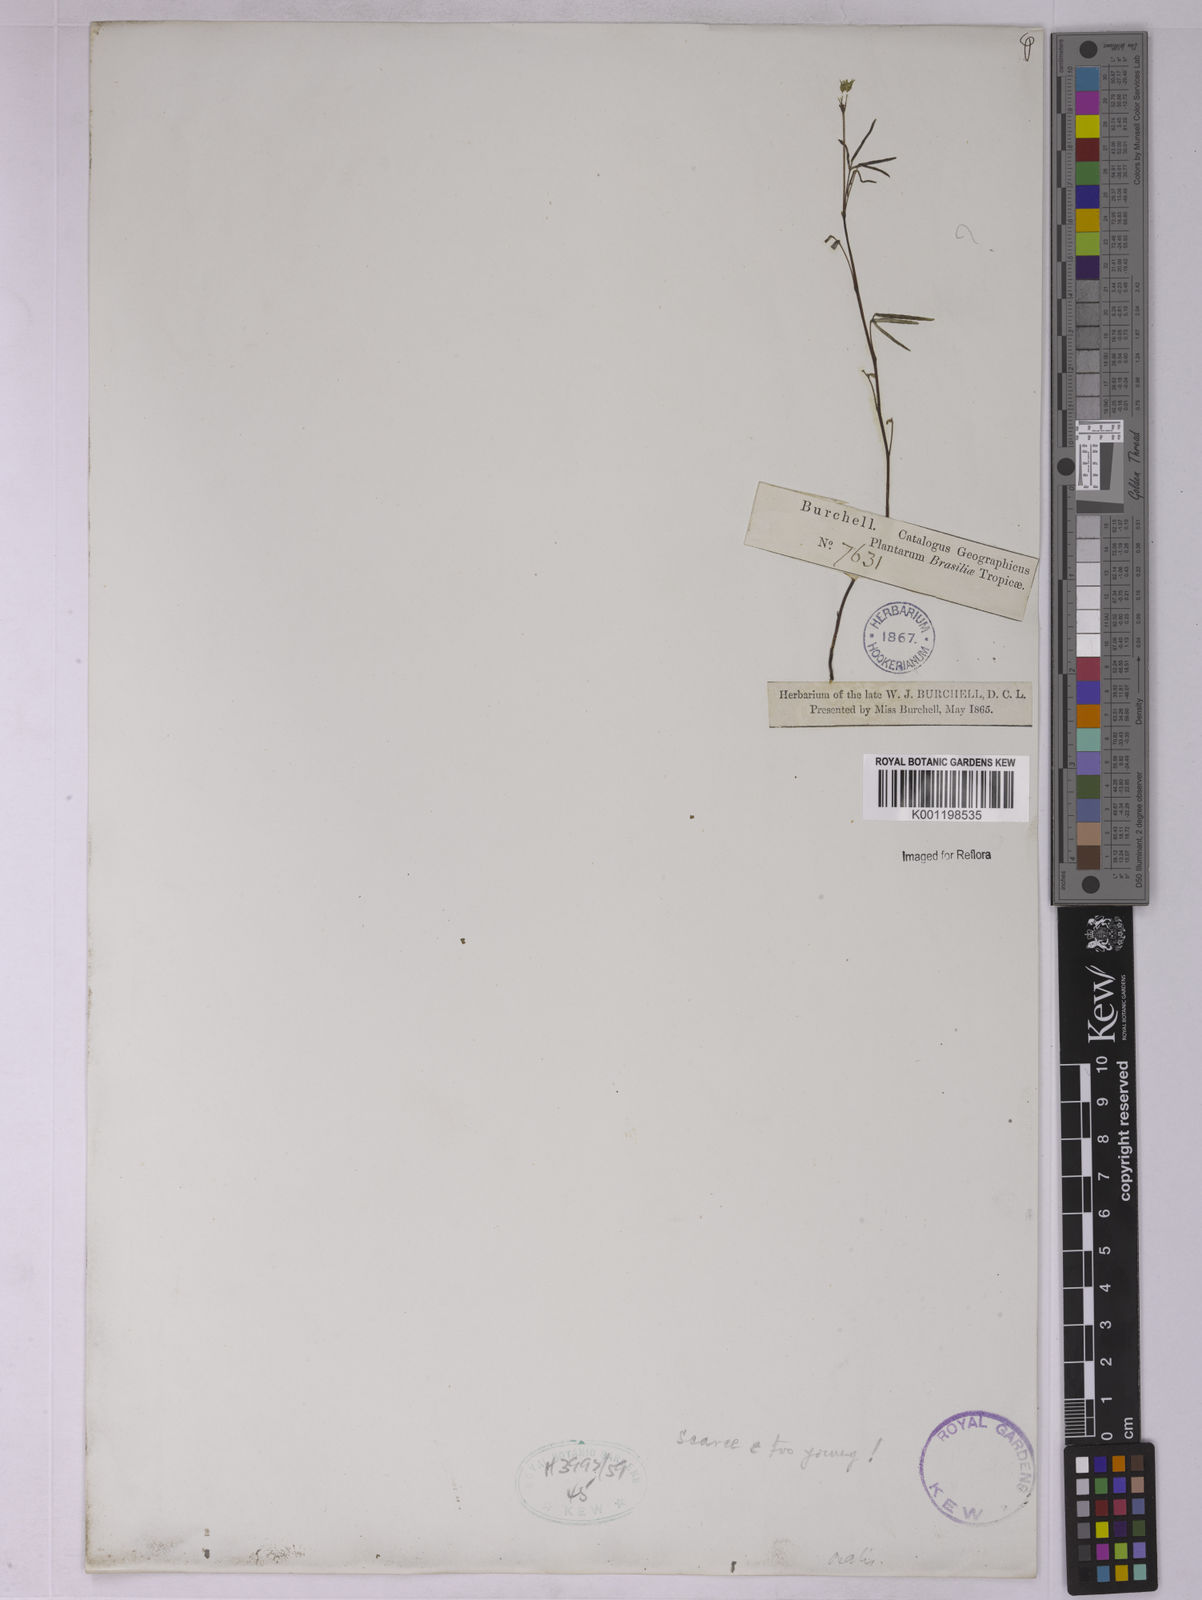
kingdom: Plantae
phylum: Tracheophyta
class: Magnoliopsida
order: Oxalidales
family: Oxalidaceae
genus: Oxalis
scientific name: Oxalis
